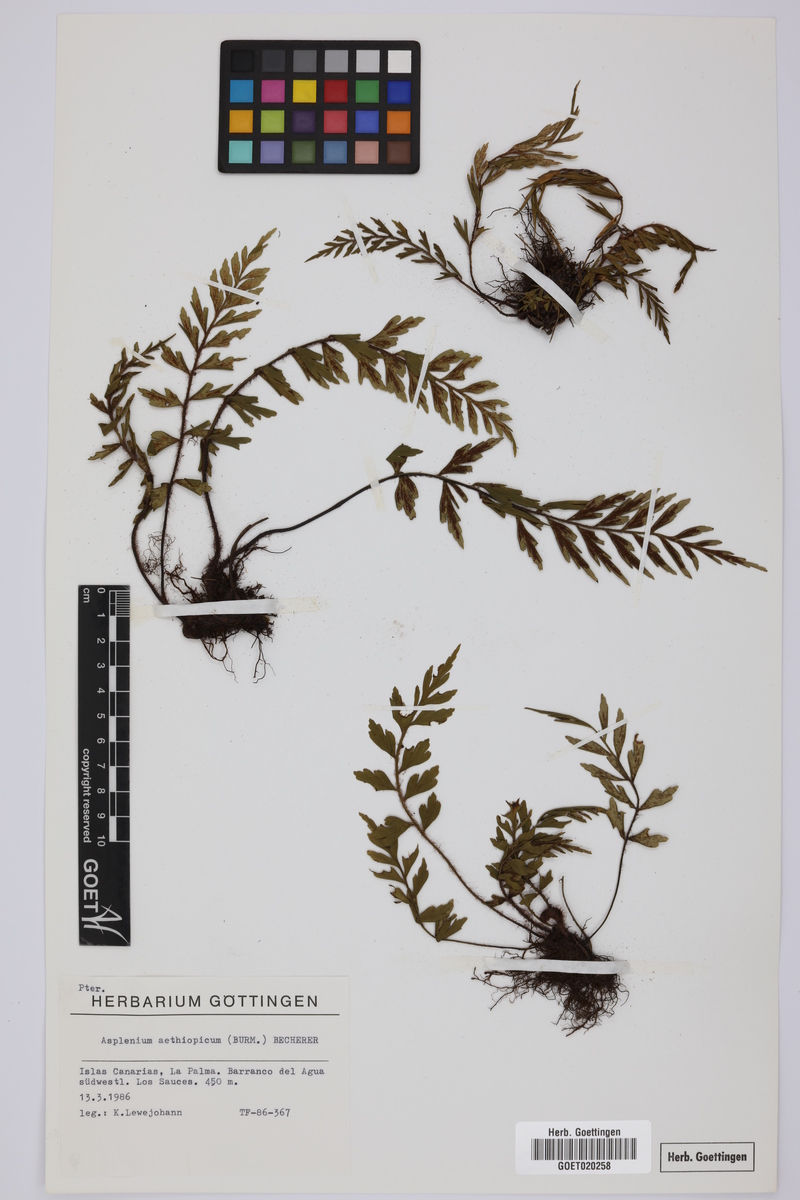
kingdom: Plantae
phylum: Tracheophyta
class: Polypodiopsida
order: Polypodiales
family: Aspleniaceae
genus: Asplenium
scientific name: Asplenium aethiopicum
